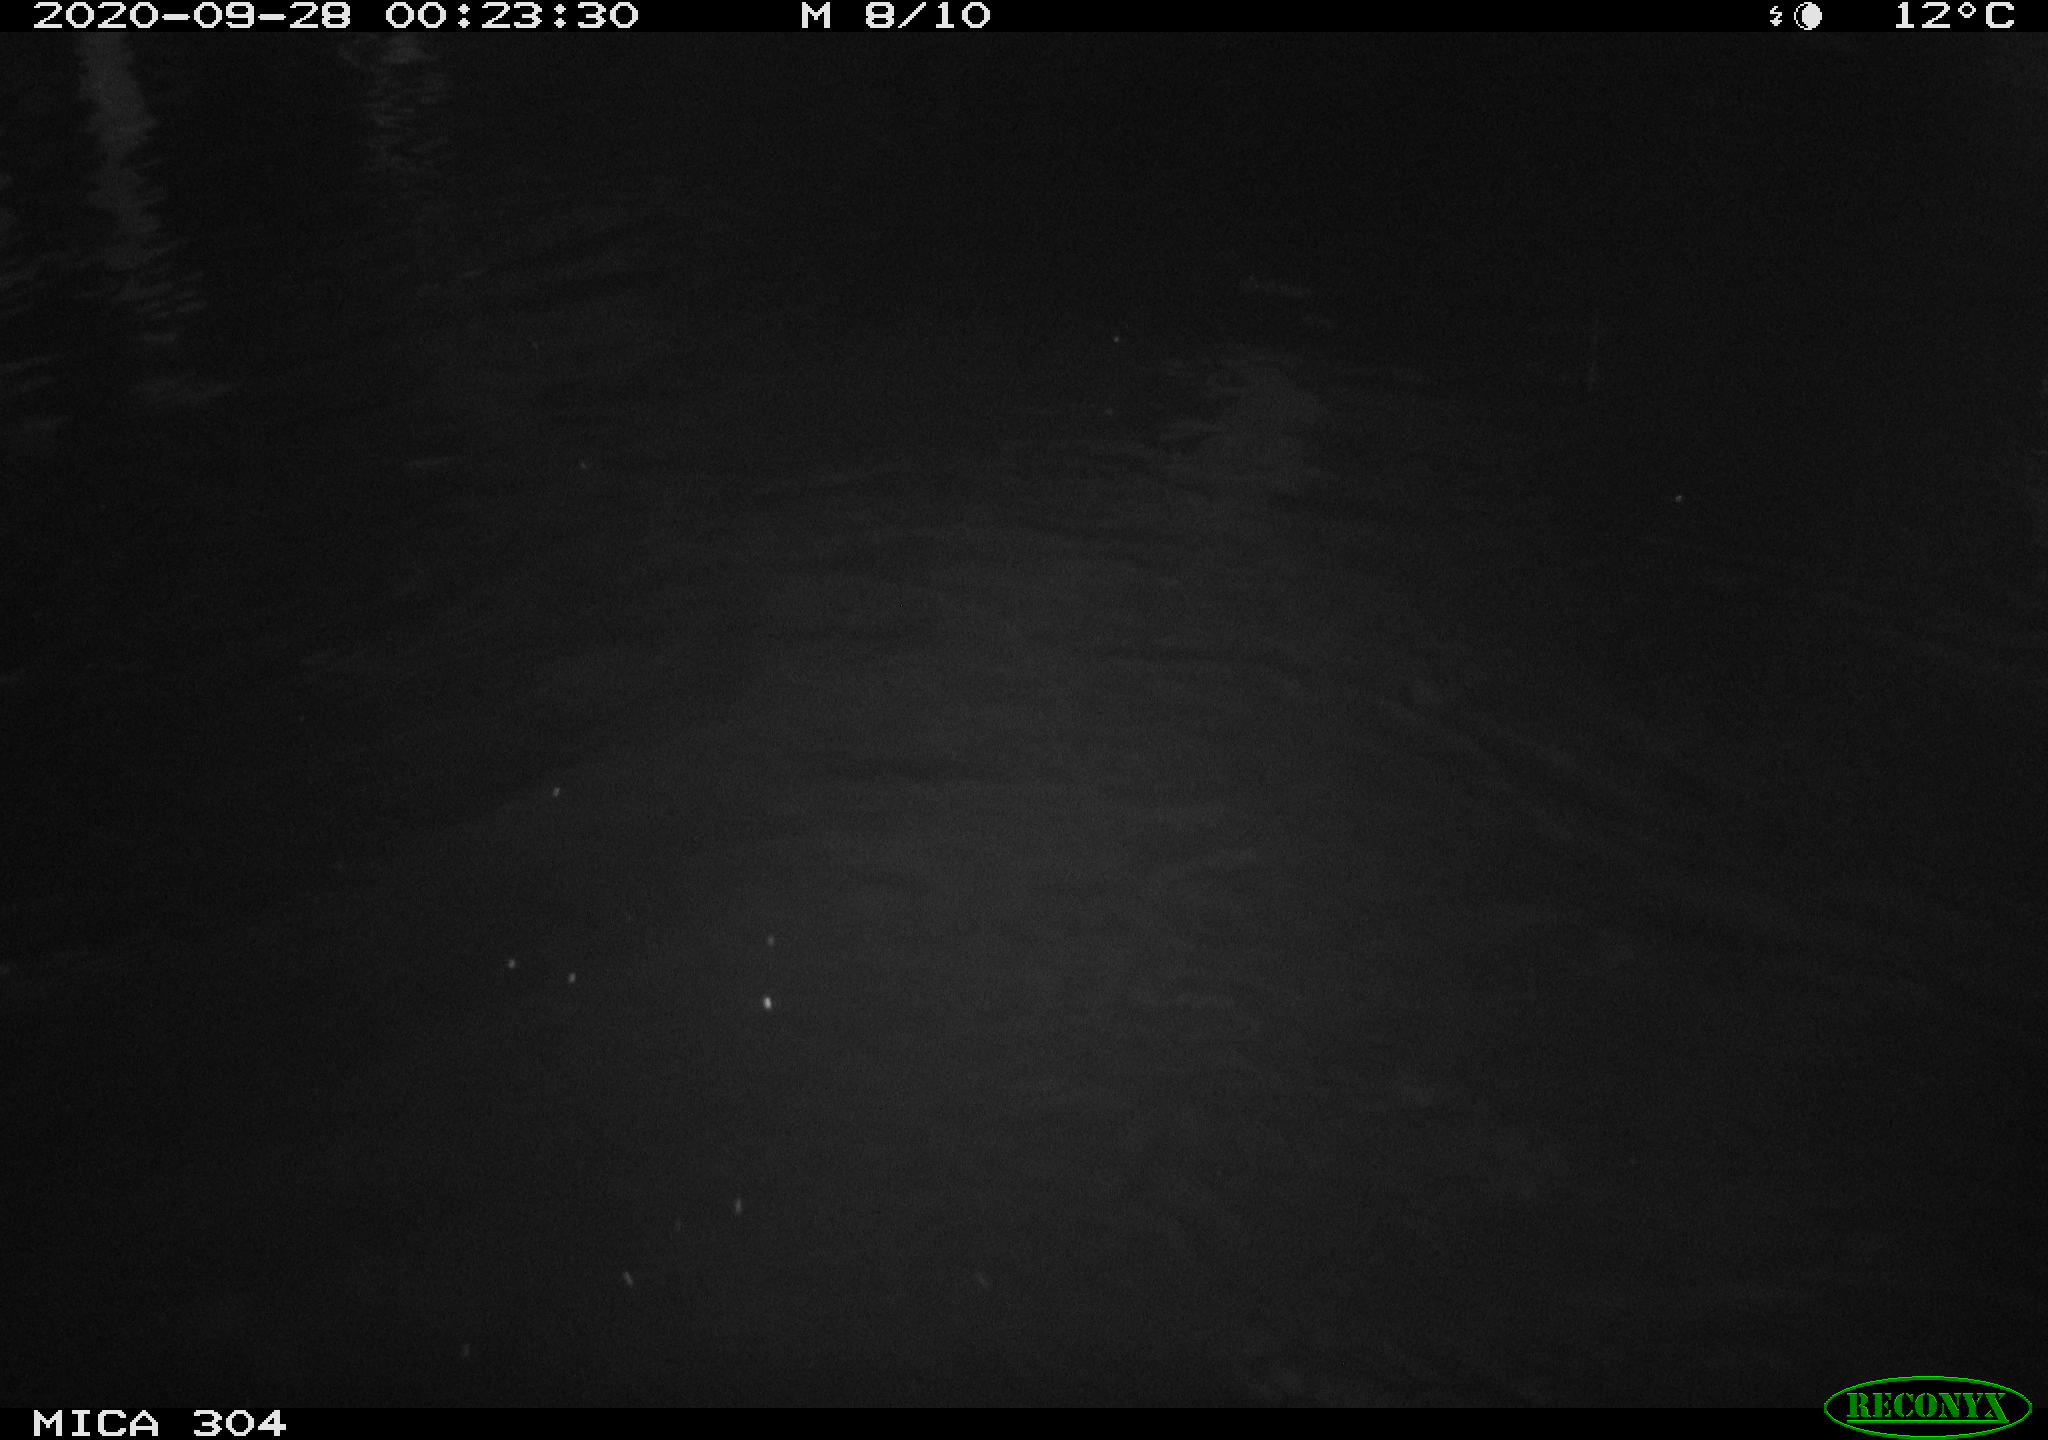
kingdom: Animalia
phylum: Chordata
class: Mammalia
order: Rodentia
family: Cricetidae
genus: Ondatra
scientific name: Ondatra zibethicus
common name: Muskrat
